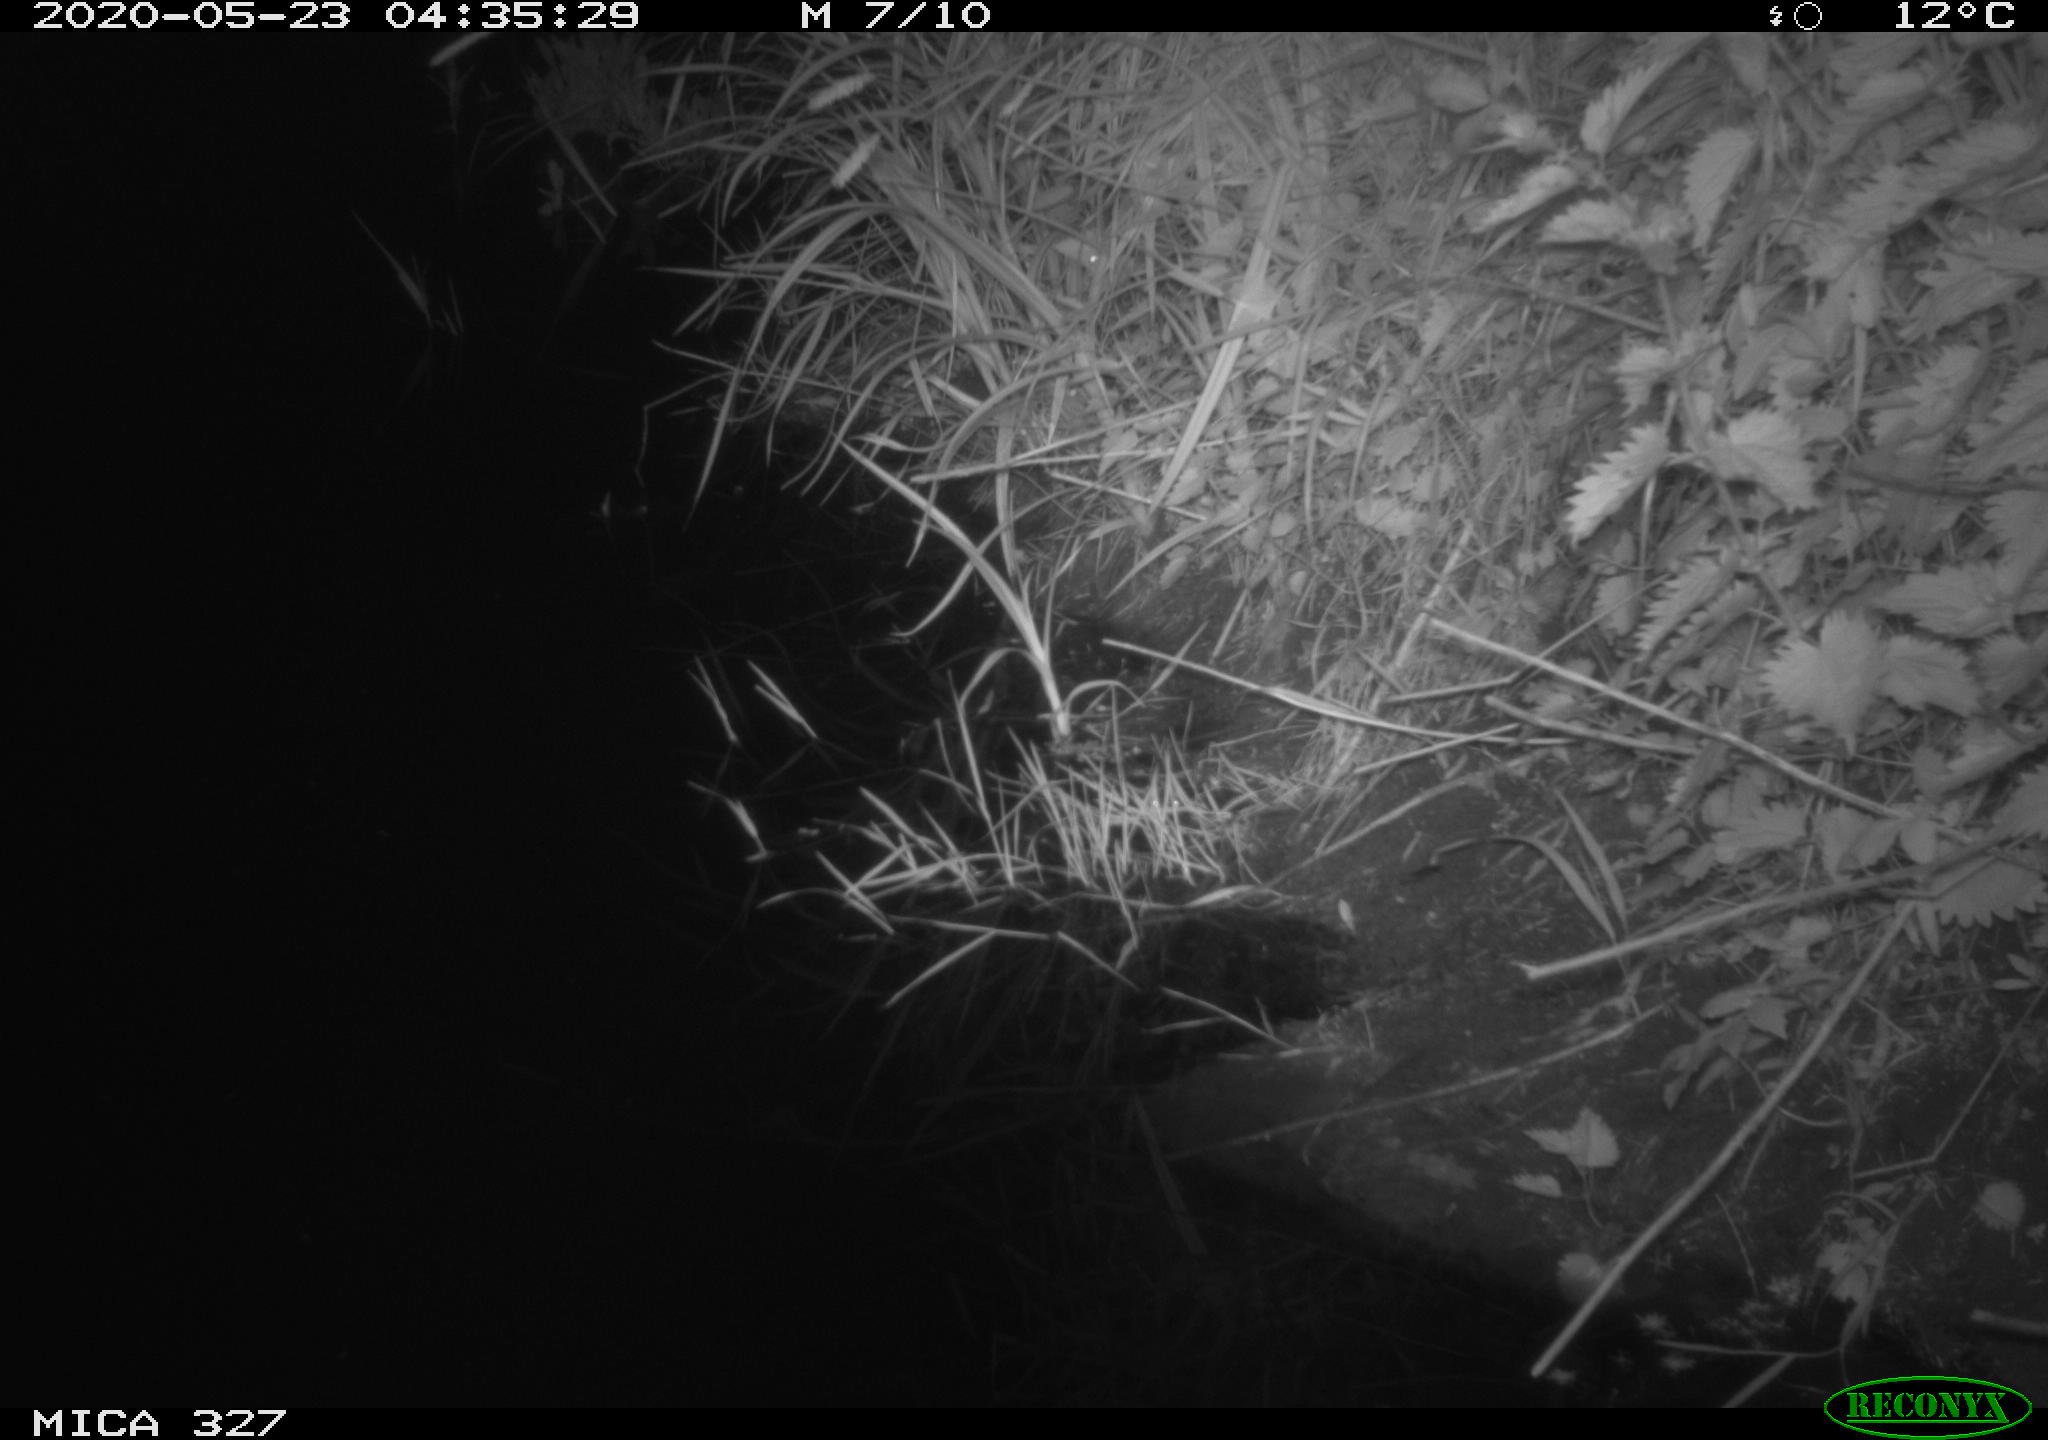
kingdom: Animalia
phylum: Chordata
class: Mammalia
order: Rodentia
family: Muridae
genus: Rattus
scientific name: Rattus norvegicus
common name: Brown rat
